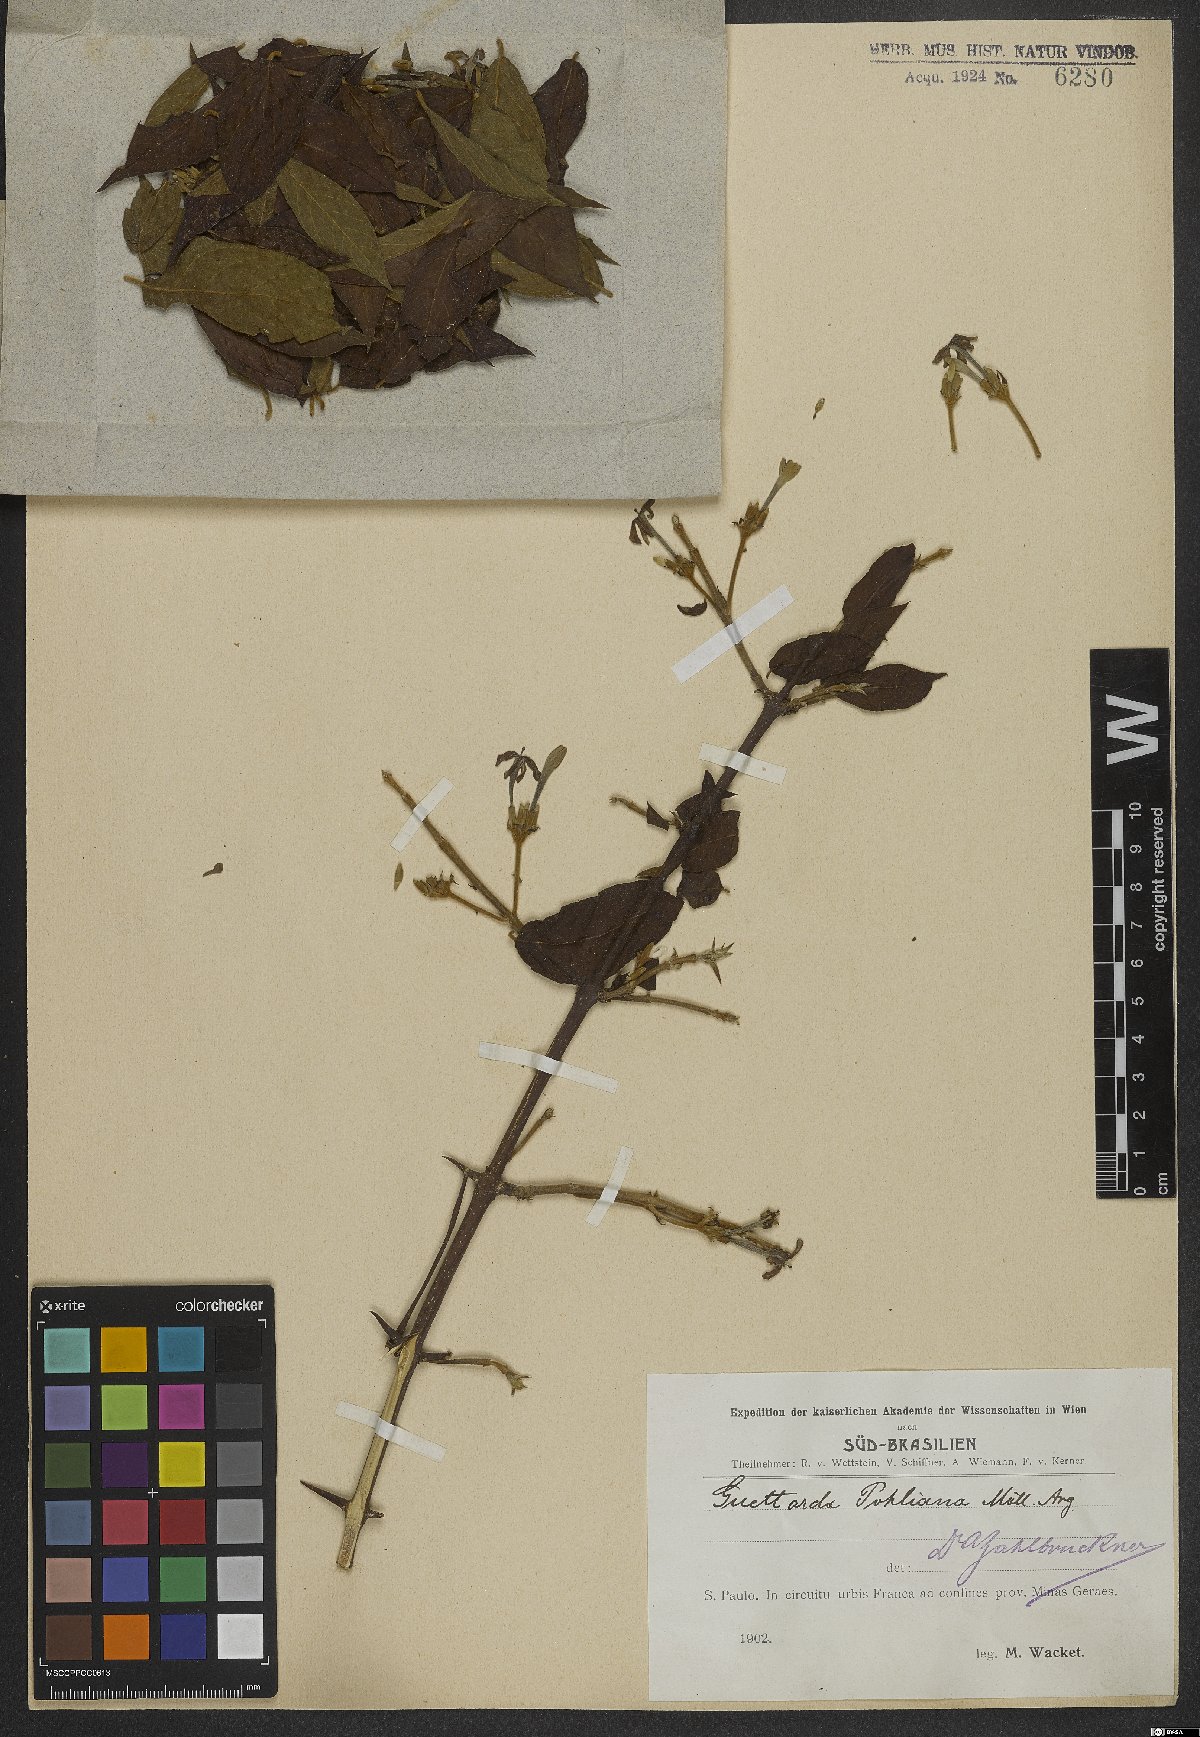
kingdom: Plantae
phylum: Tracheophyta
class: Magnoliopsida
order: Gentianales
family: Rubiaceae
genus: Guettarda
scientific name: Guettarda pohliana
